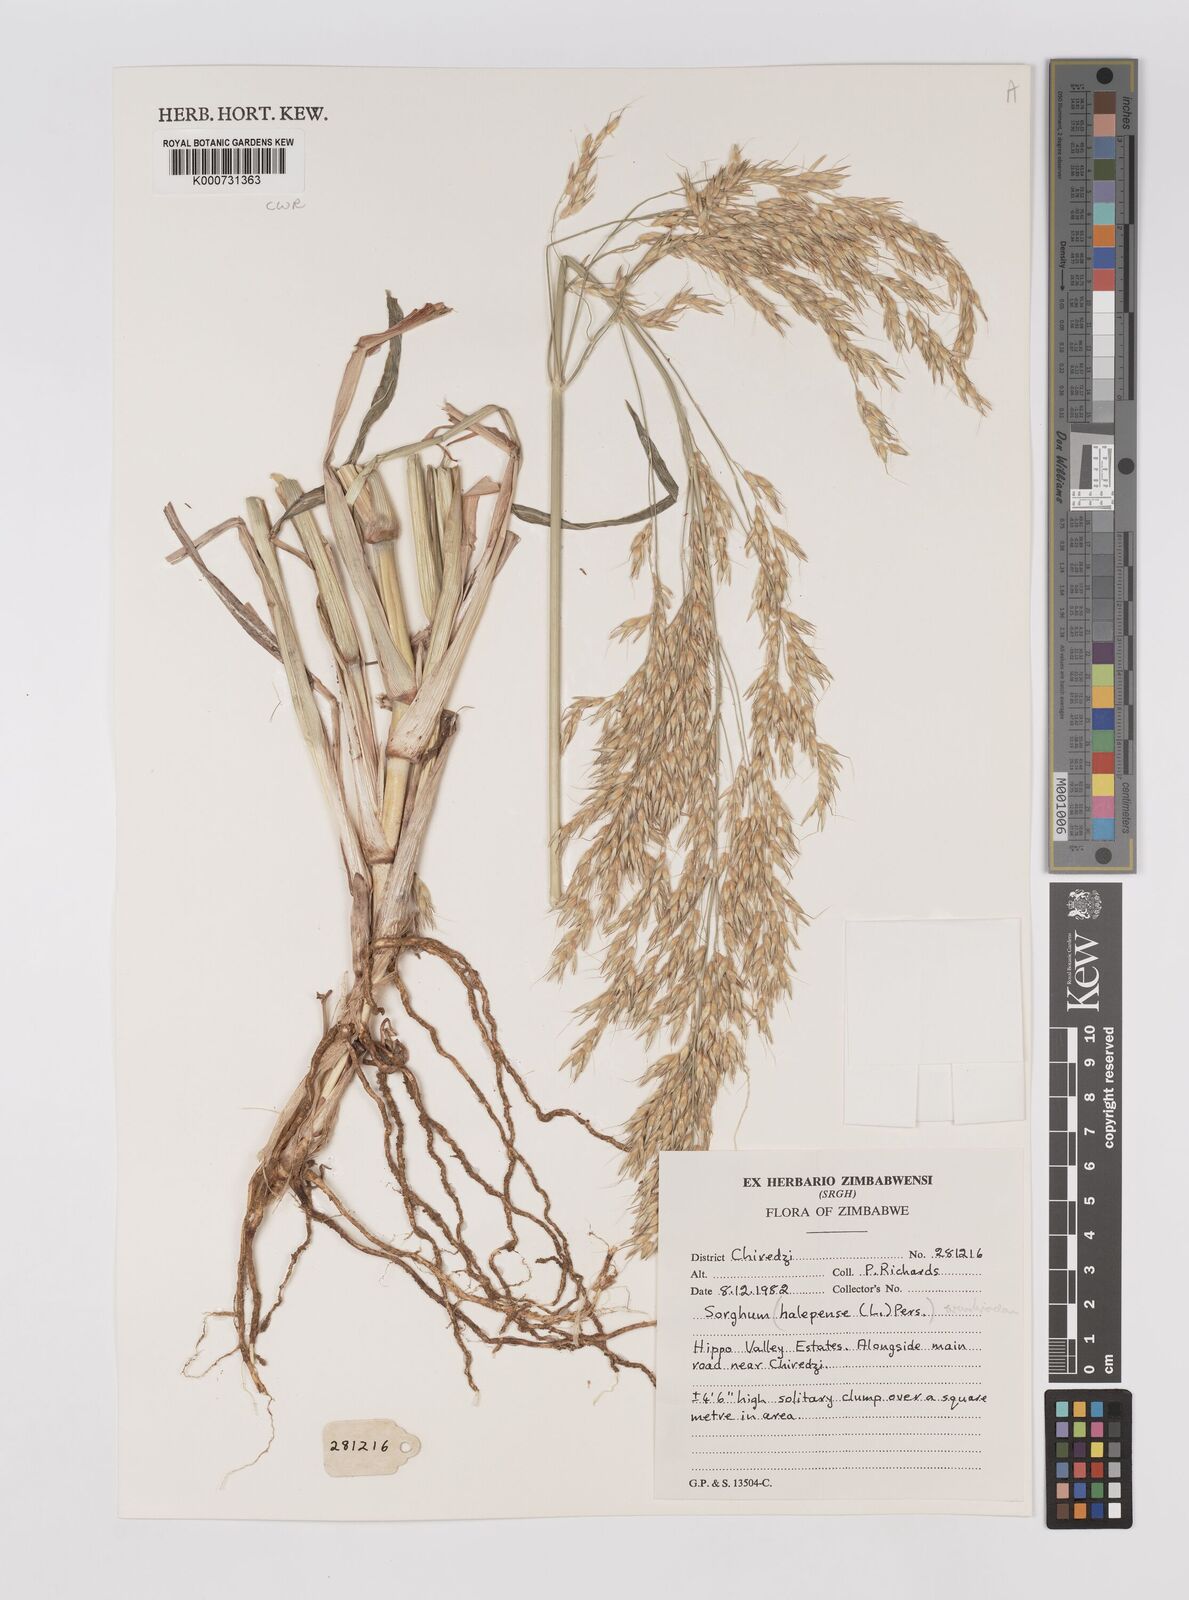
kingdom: Plantae
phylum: Tracheophyta
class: Liliopsida
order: Poales
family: Poaceae
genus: Sorghum
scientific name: Sorghum halepense
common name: Johnson-grass
